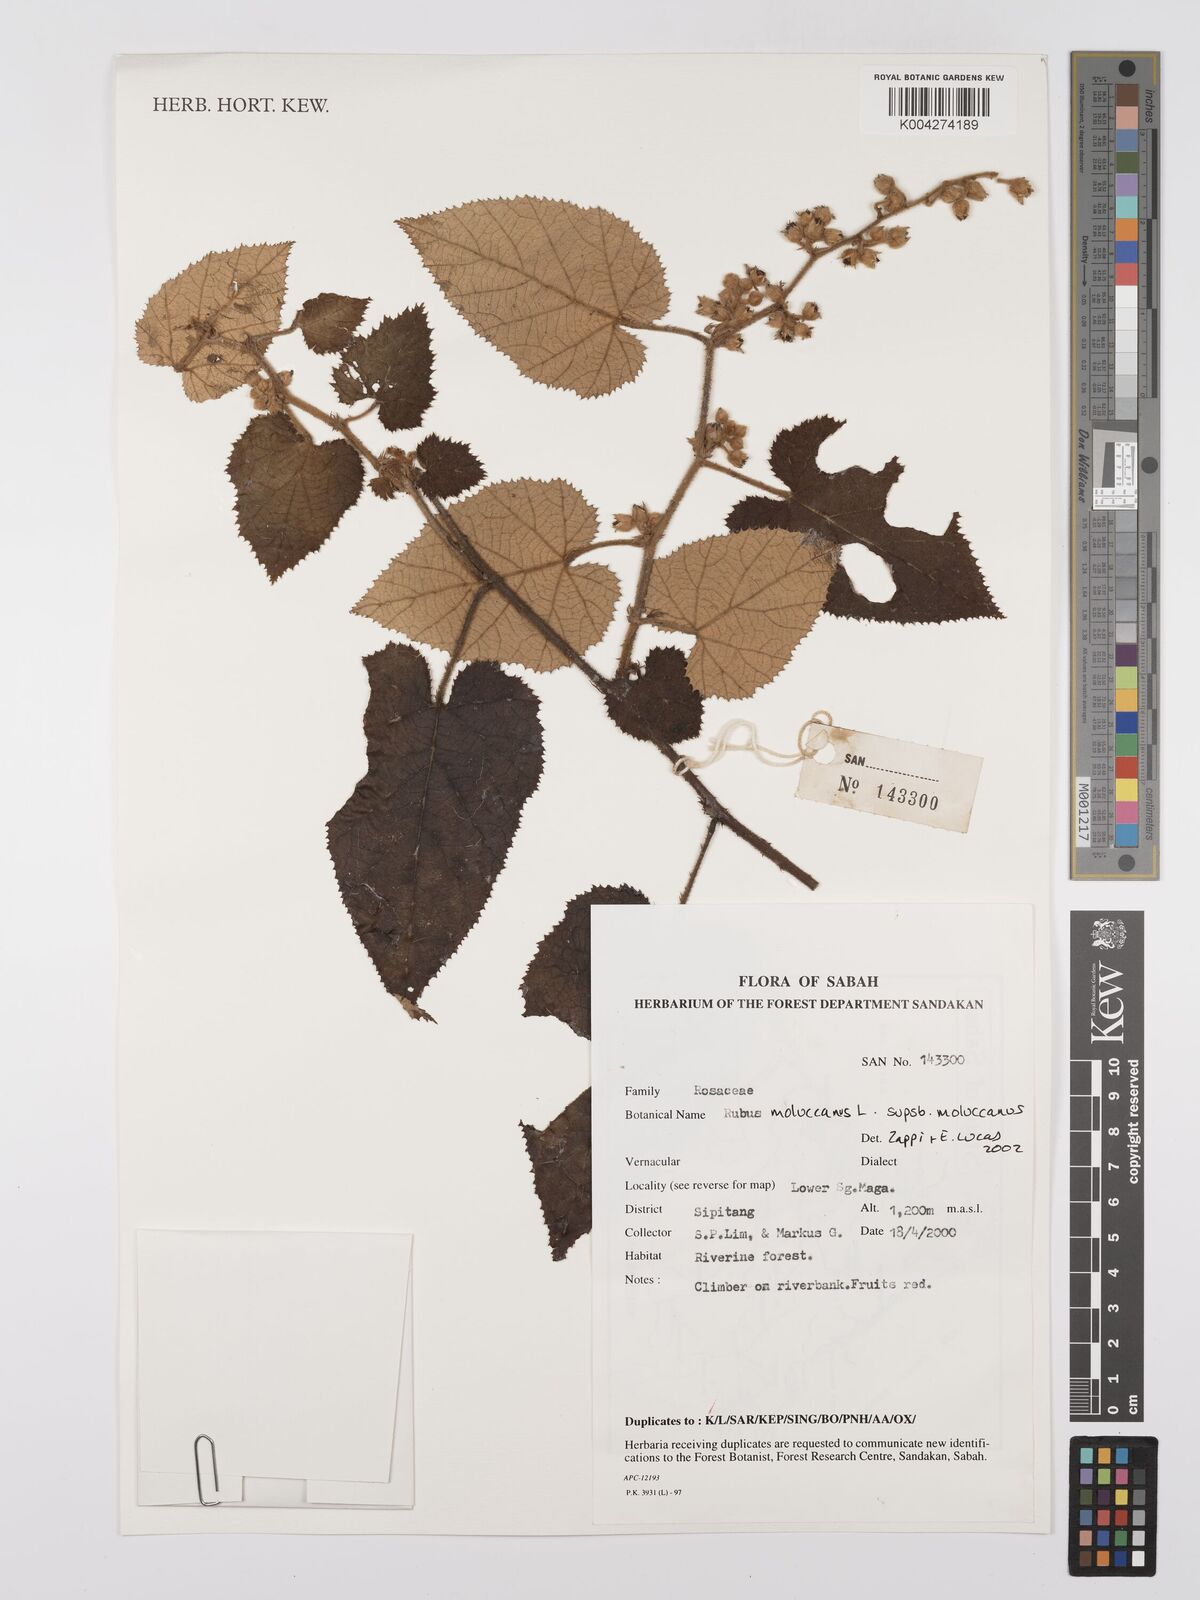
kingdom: Plantae
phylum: Tracheophyta
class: Magnoliopsida
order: Rosales
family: Rosaceae
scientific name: Rosaceae
